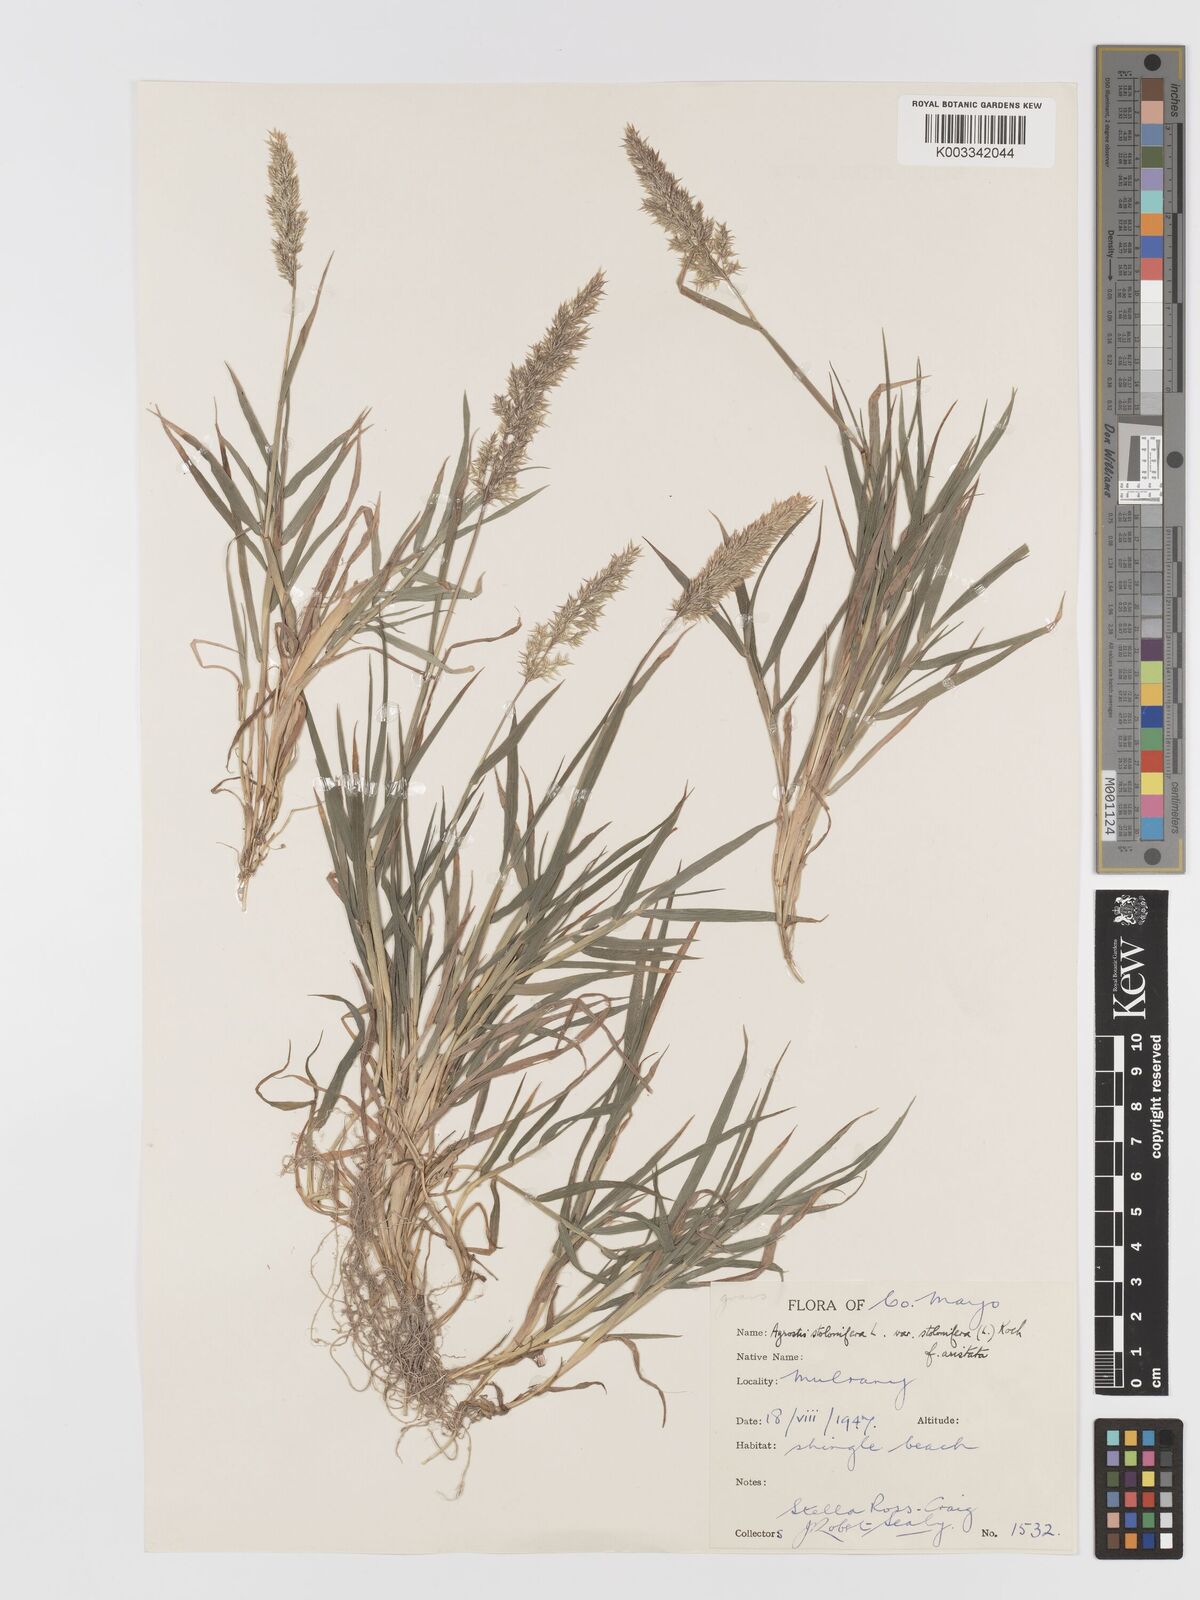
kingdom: Plantae
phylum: Tracheophyta
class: Liliopsida
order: Poales
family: Poaceae
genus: Agrostis
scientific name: Agrostis stolonifera
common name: Creeping bentgrass
